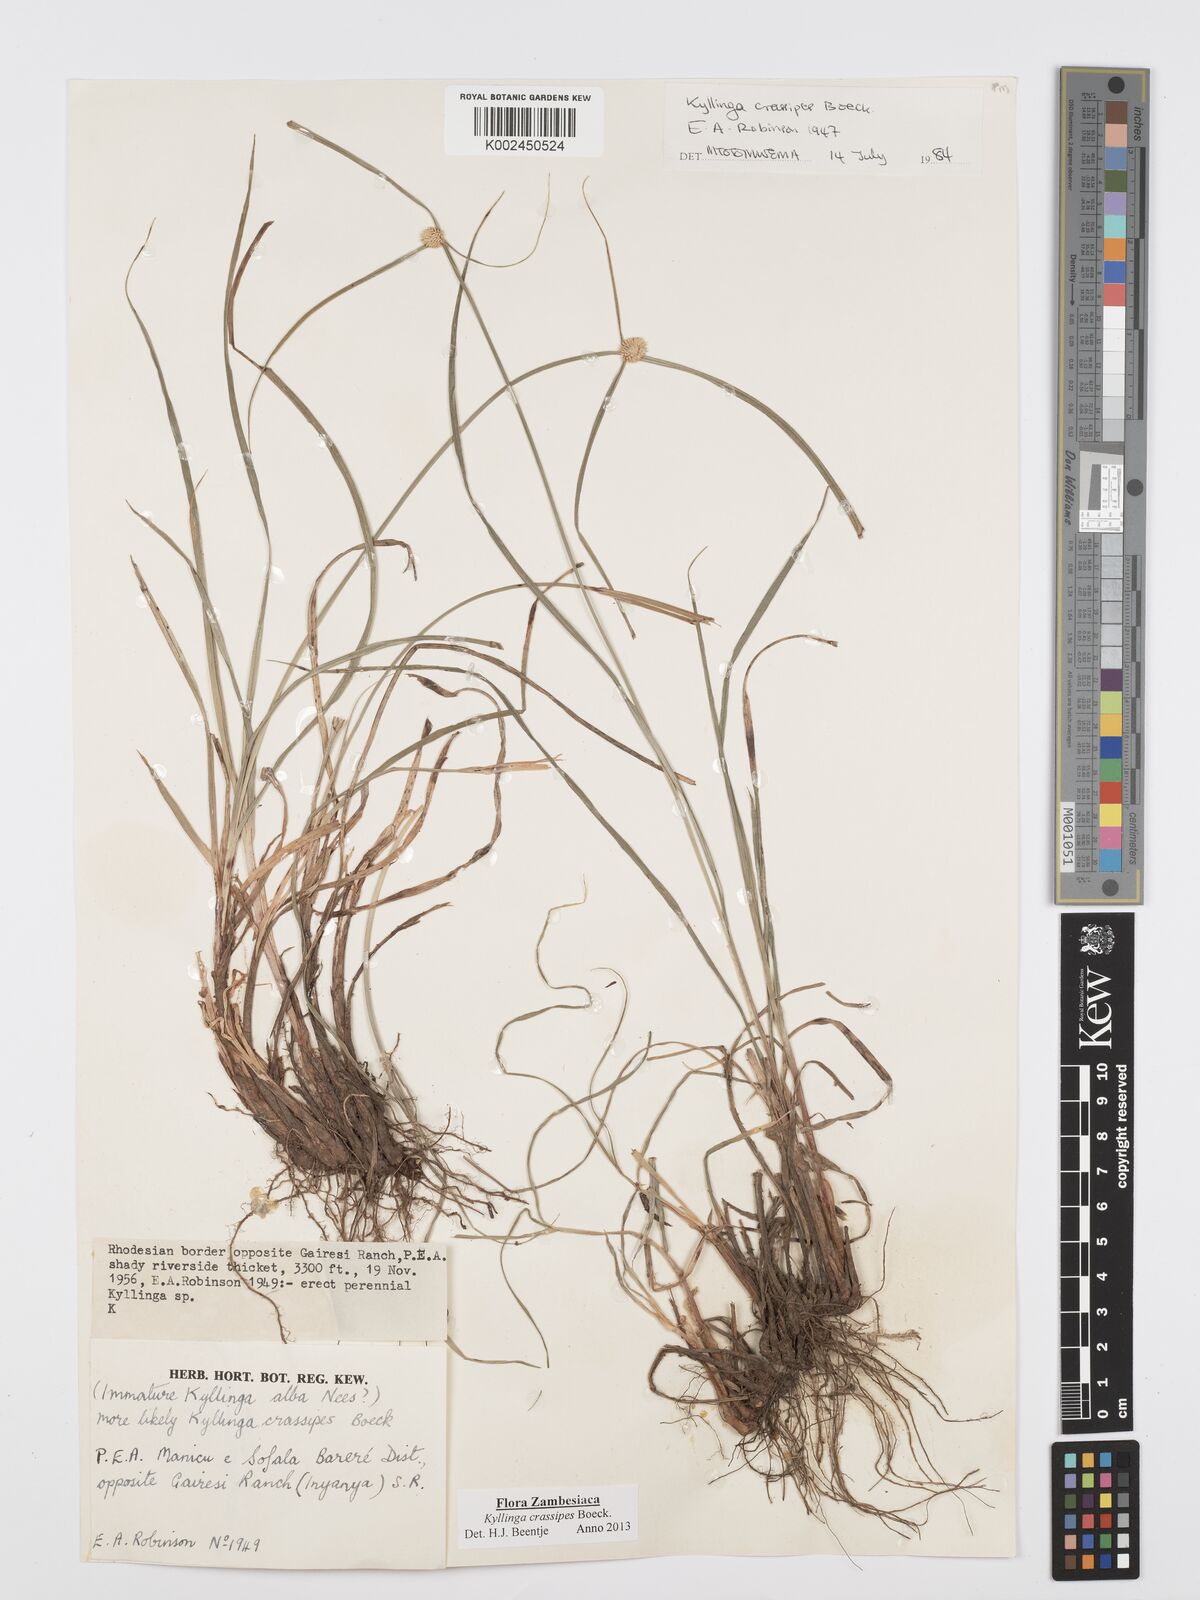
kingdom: Plantae
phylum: Tracheophyta
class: Liliopsida
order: Poales
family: Cyperaceae
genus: Cyperus
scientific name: Cyperus crassipes
